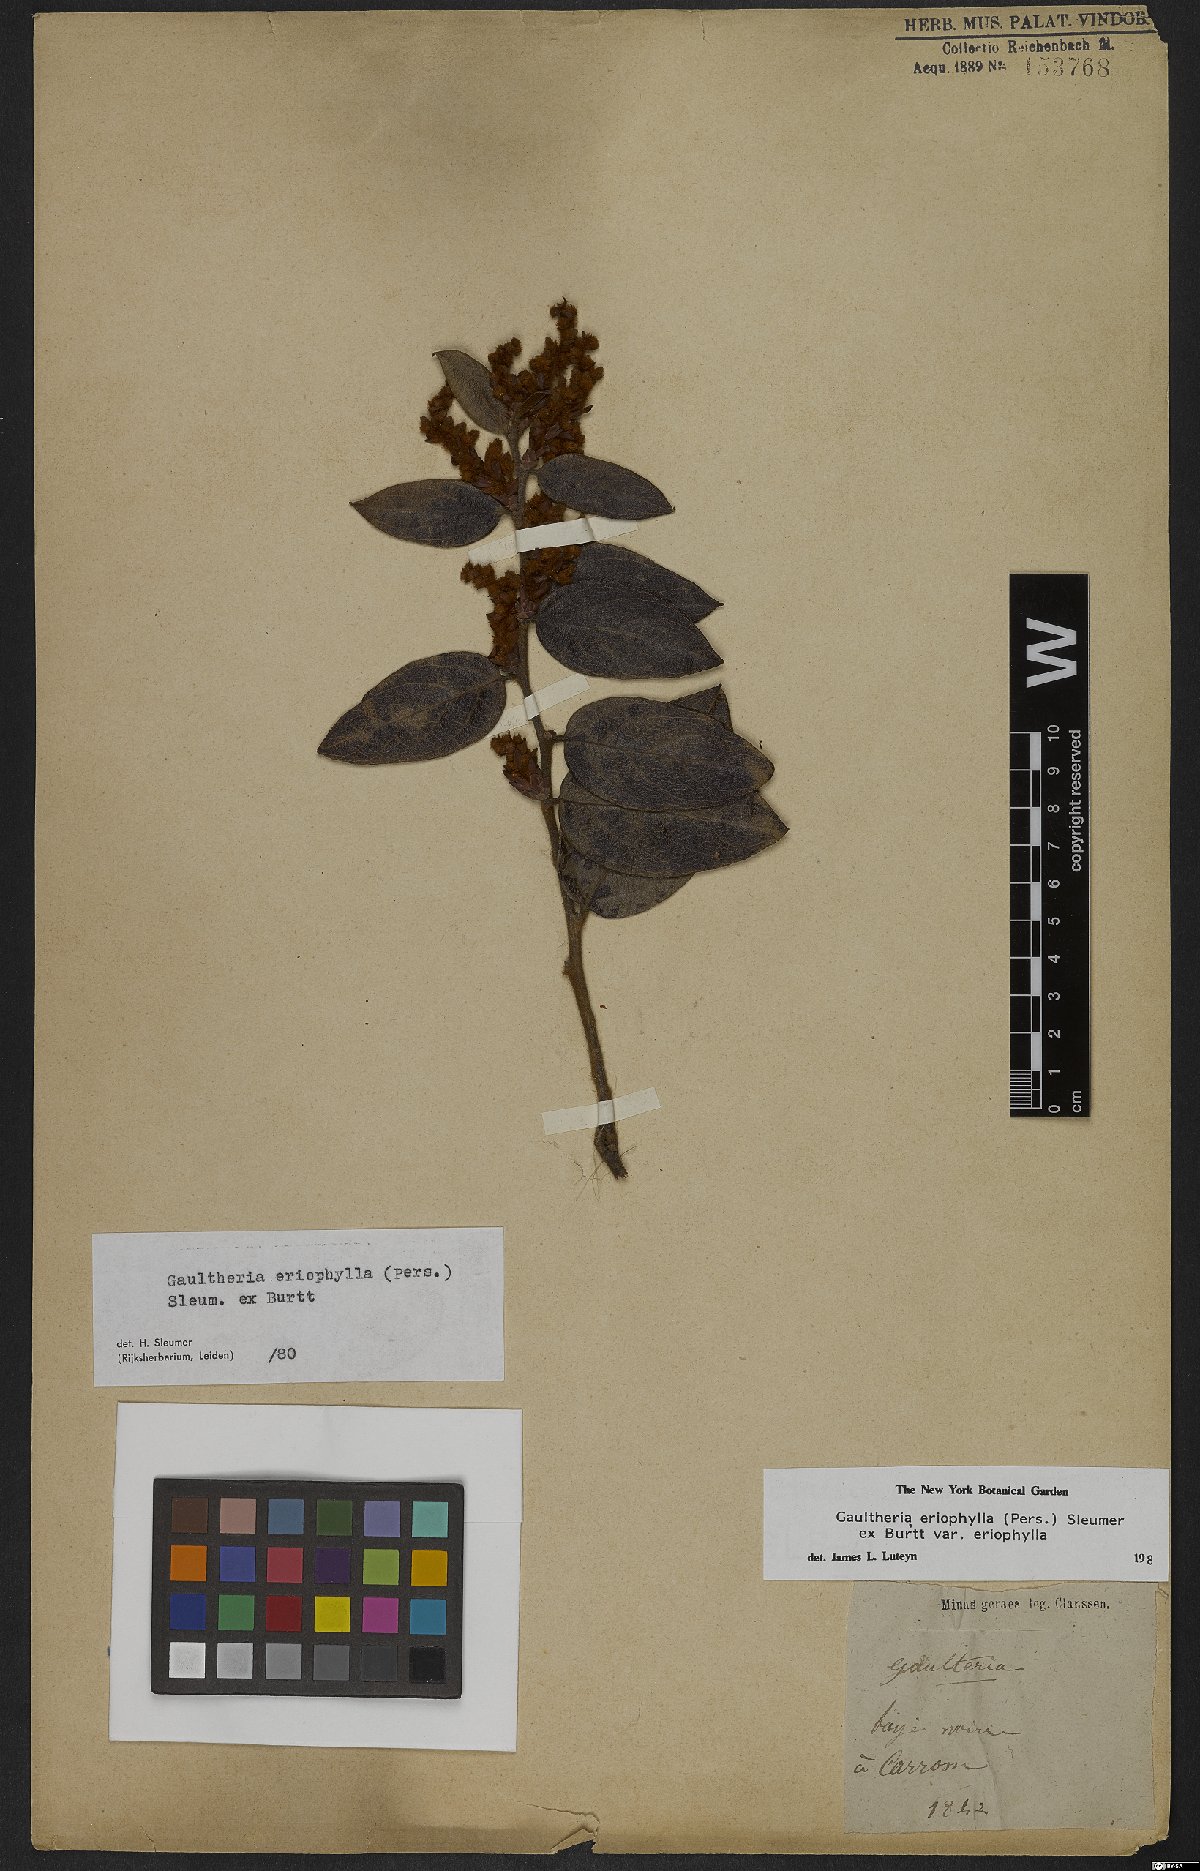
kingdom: Plantae
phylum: Tracheophyta
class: Magnoliopsida
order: Ericales
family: Ericaceae
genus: Gaultheria
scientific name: Gaultheria eriophylla
